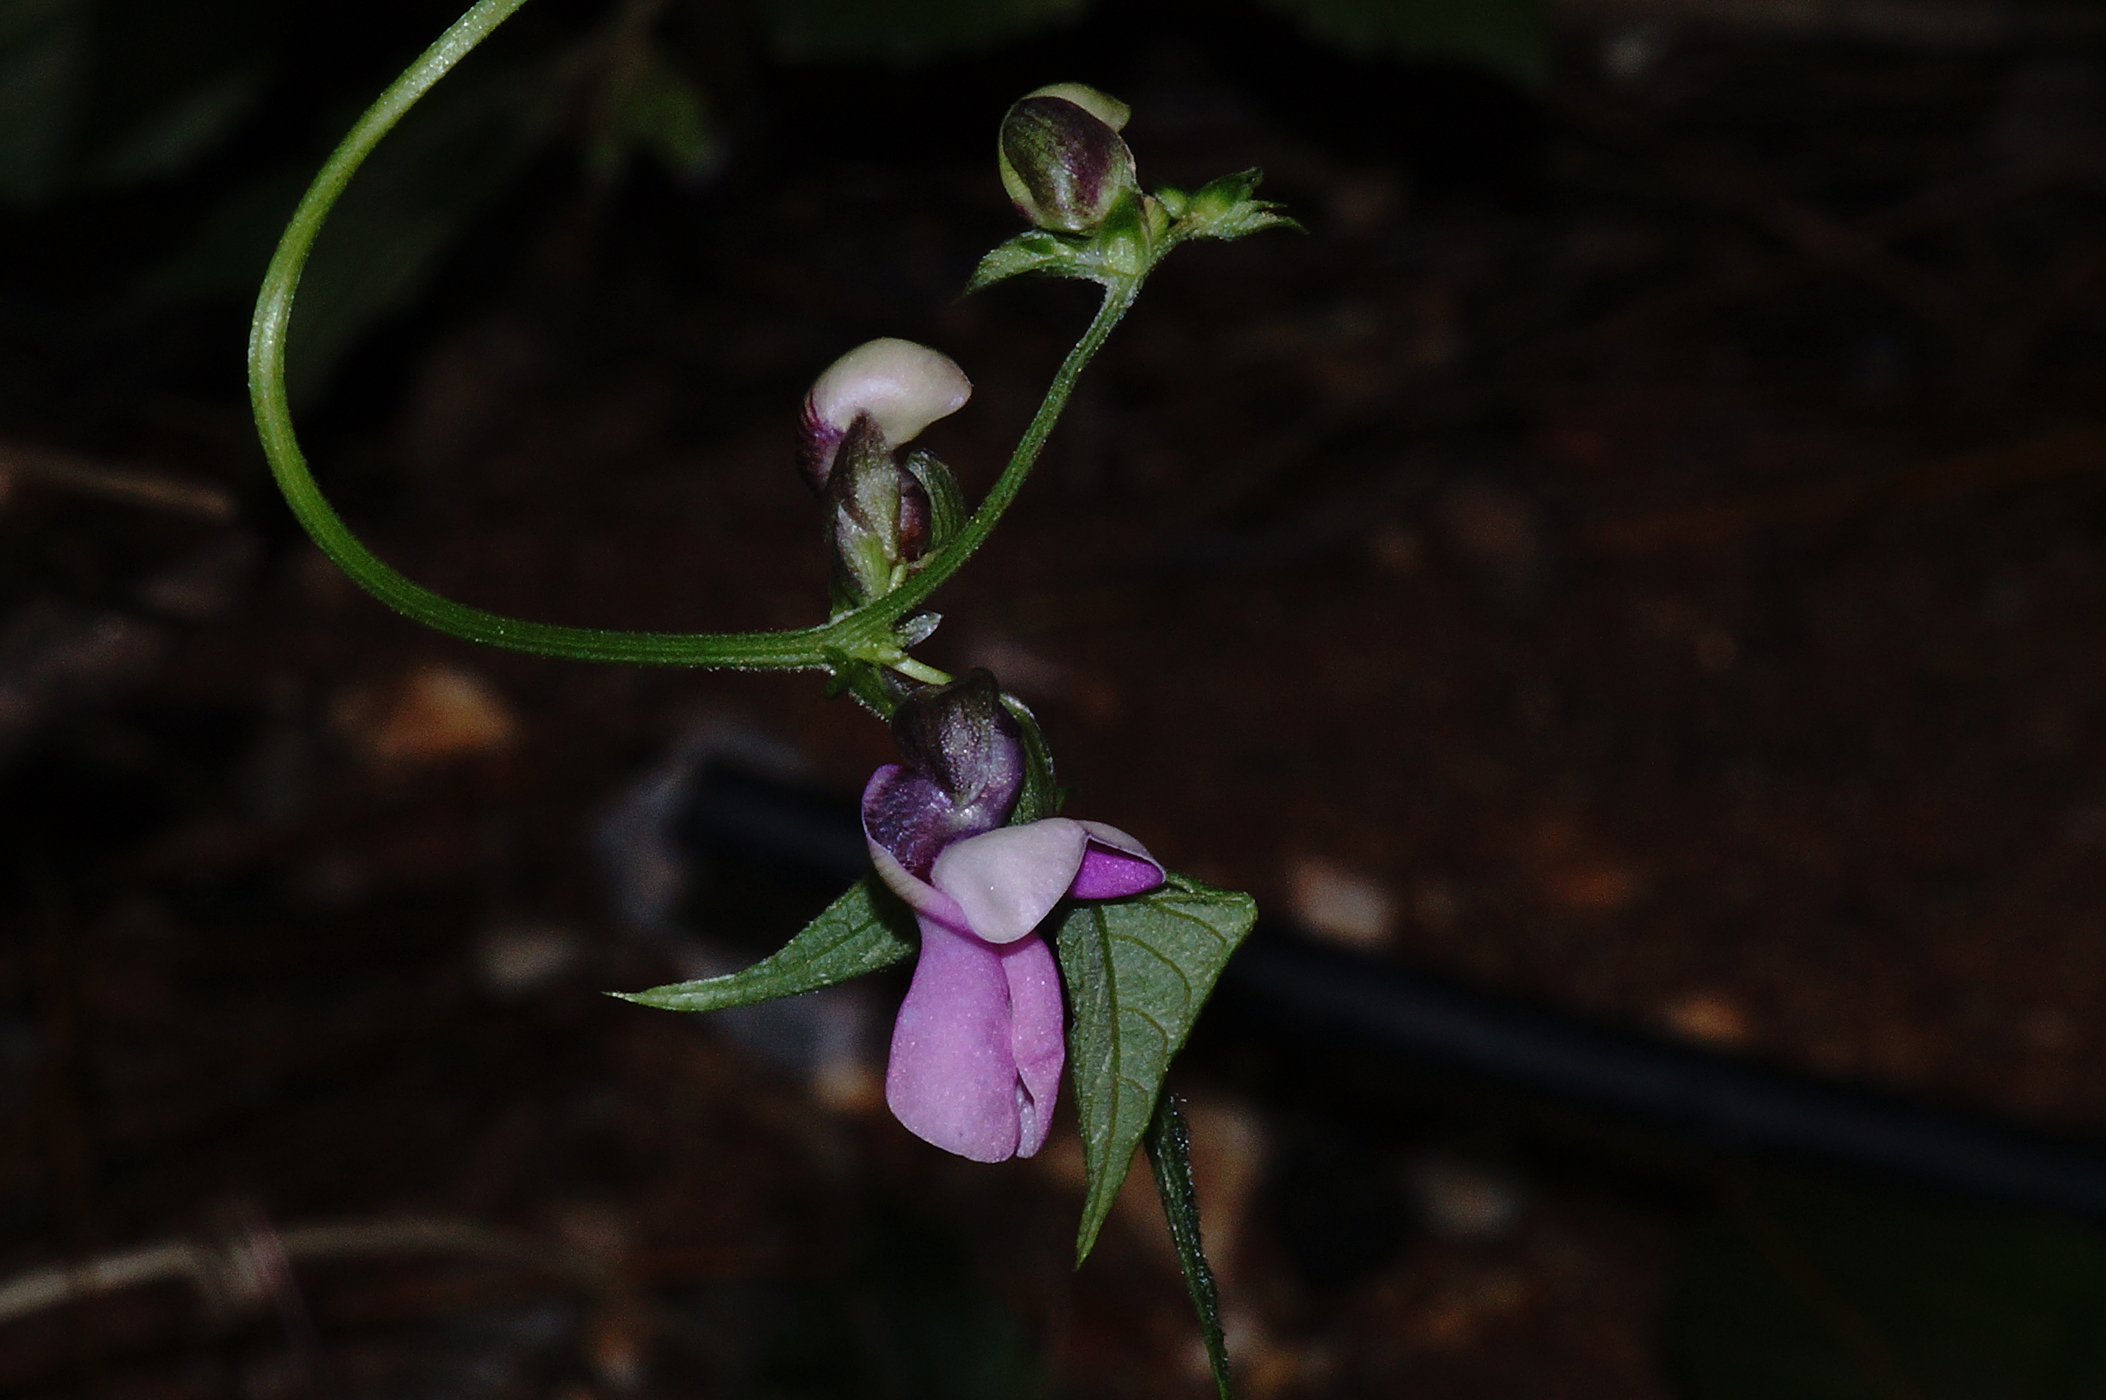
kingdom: Plantae
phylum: Tracheophyta
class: Magnoliopsida
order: Fabales
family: Fabaceae
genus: Phaseolus
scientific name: Phaseolus vulgaris
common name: Bean
